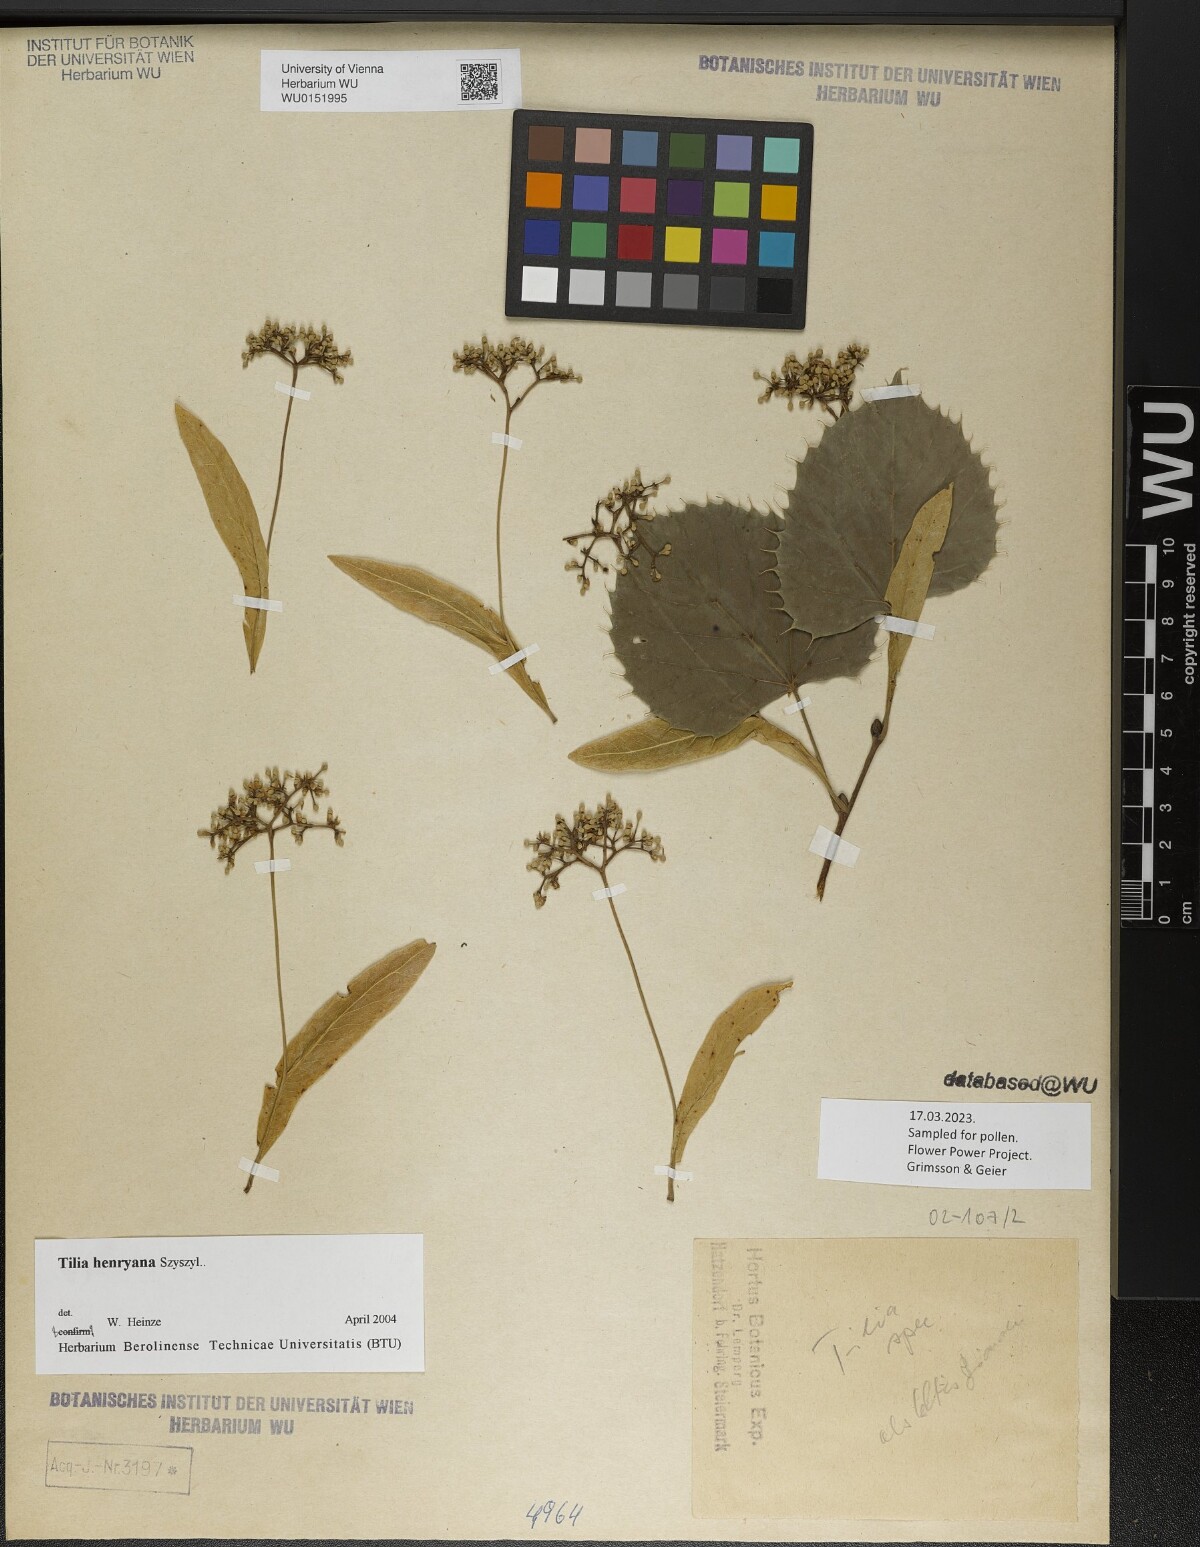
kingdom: Plantae
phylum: Tracheophyta
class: Magnoliopsida
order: Malvales
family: Malvaceae
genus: Tilia
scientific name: Tilia henryana
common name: Henry's lime
